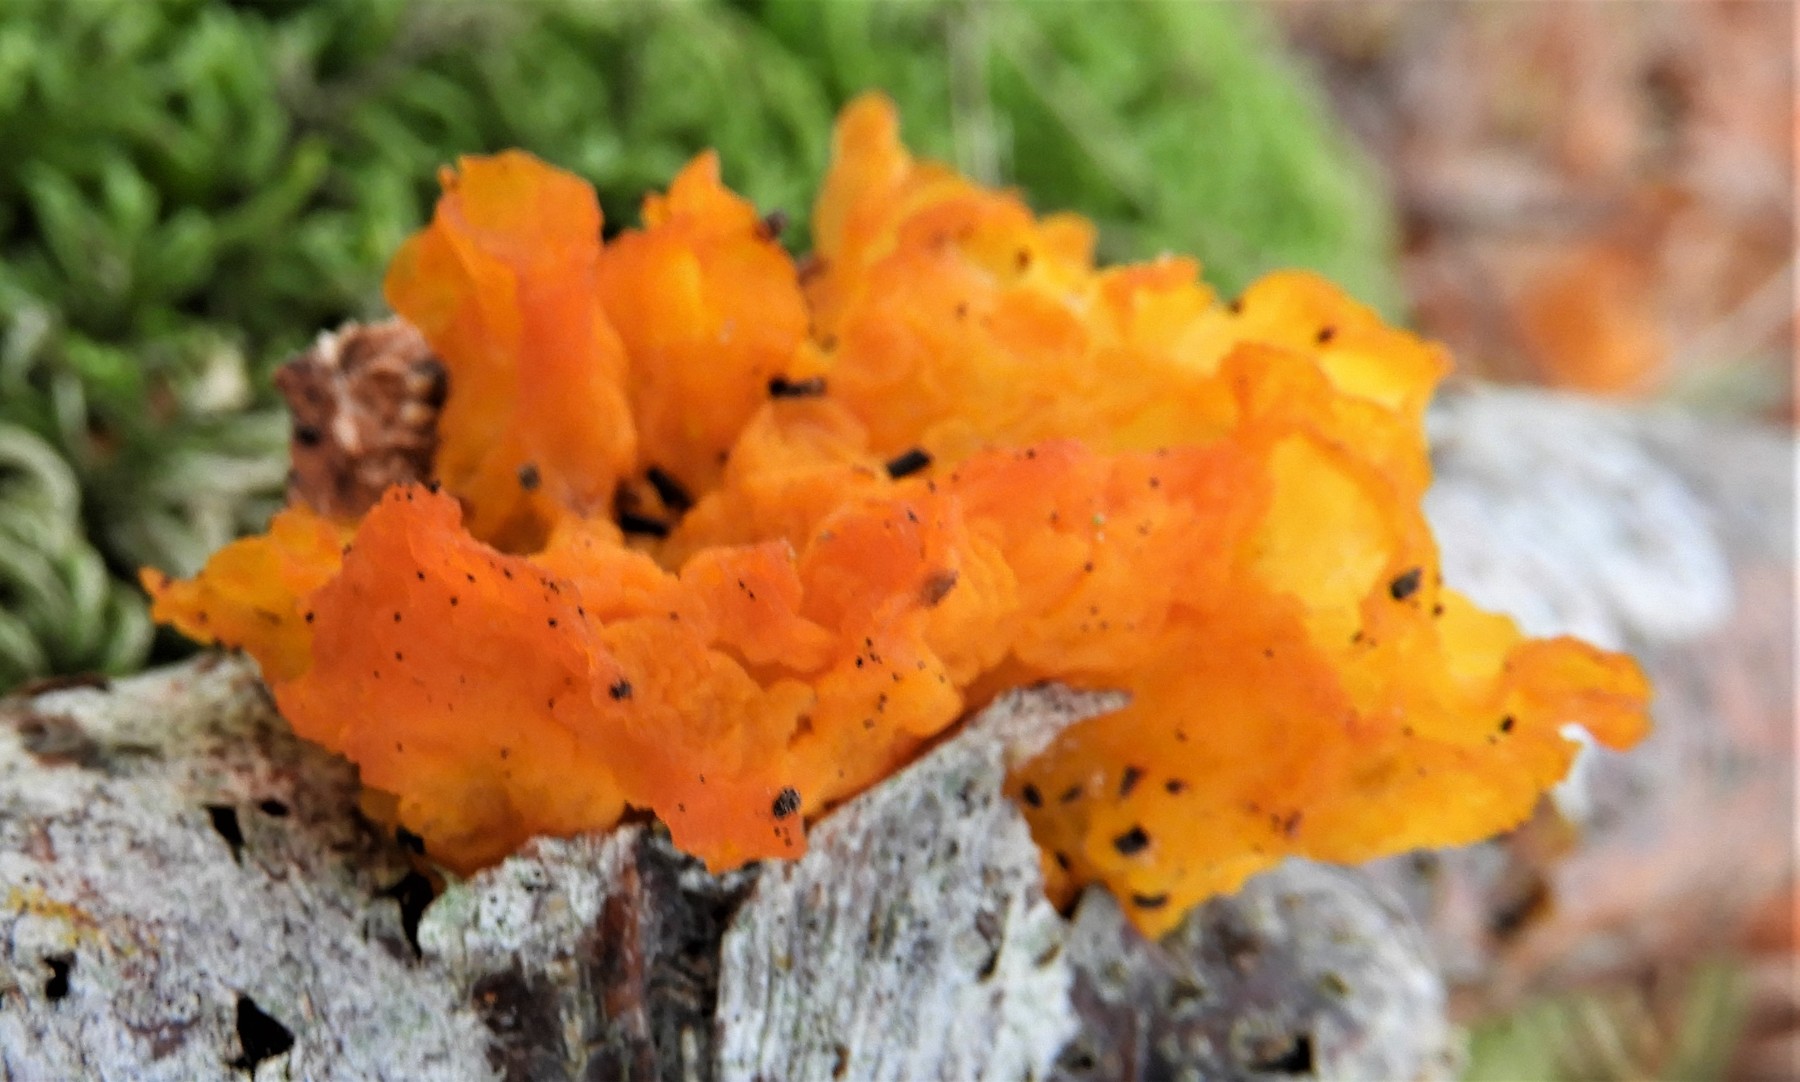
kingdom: Fungi
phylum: Basidiomycota
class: Tremellomycetes
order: Tremellales
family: Tremellaceae
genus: Tremella
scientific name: Tremella mesenterica
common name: gul bævresvamp
